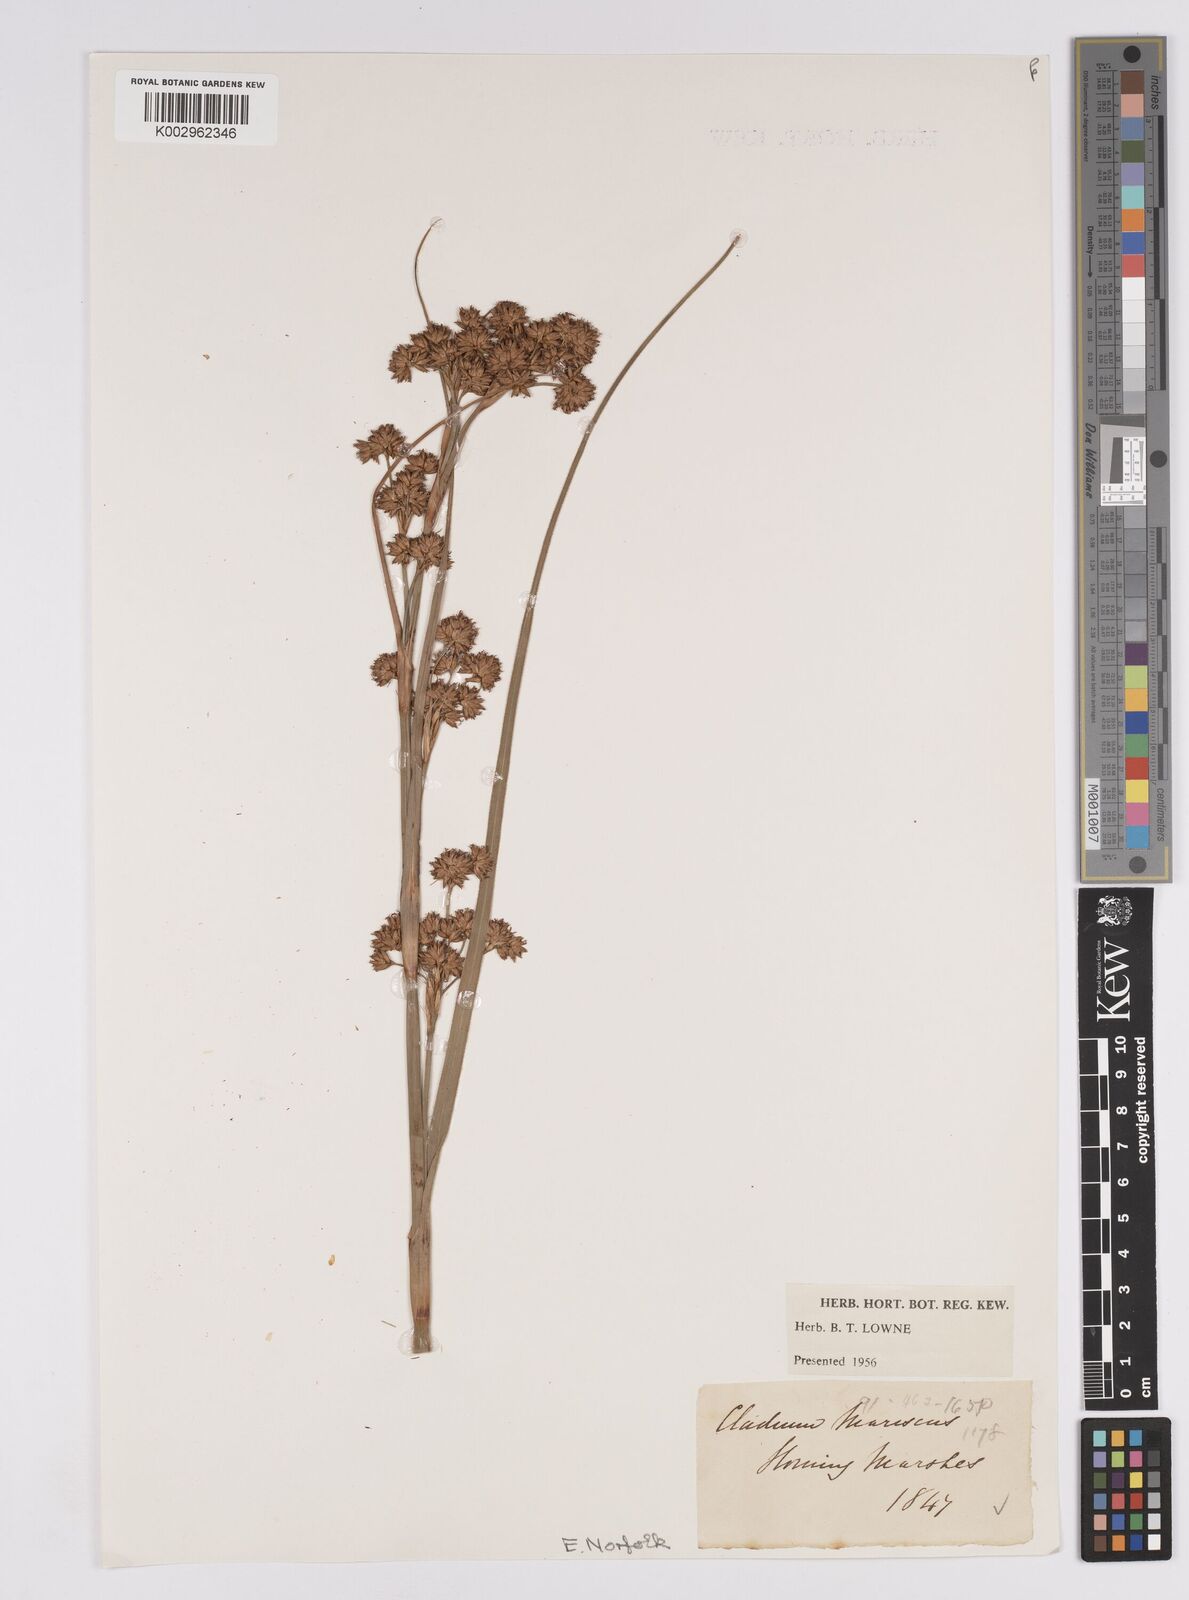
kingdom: Plantae
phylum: Tracheophyta
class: Liliopsida
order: Poales
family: Cyperaceae
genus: Cladium
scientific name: Cladium mariscus
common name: Great fen-sedge
